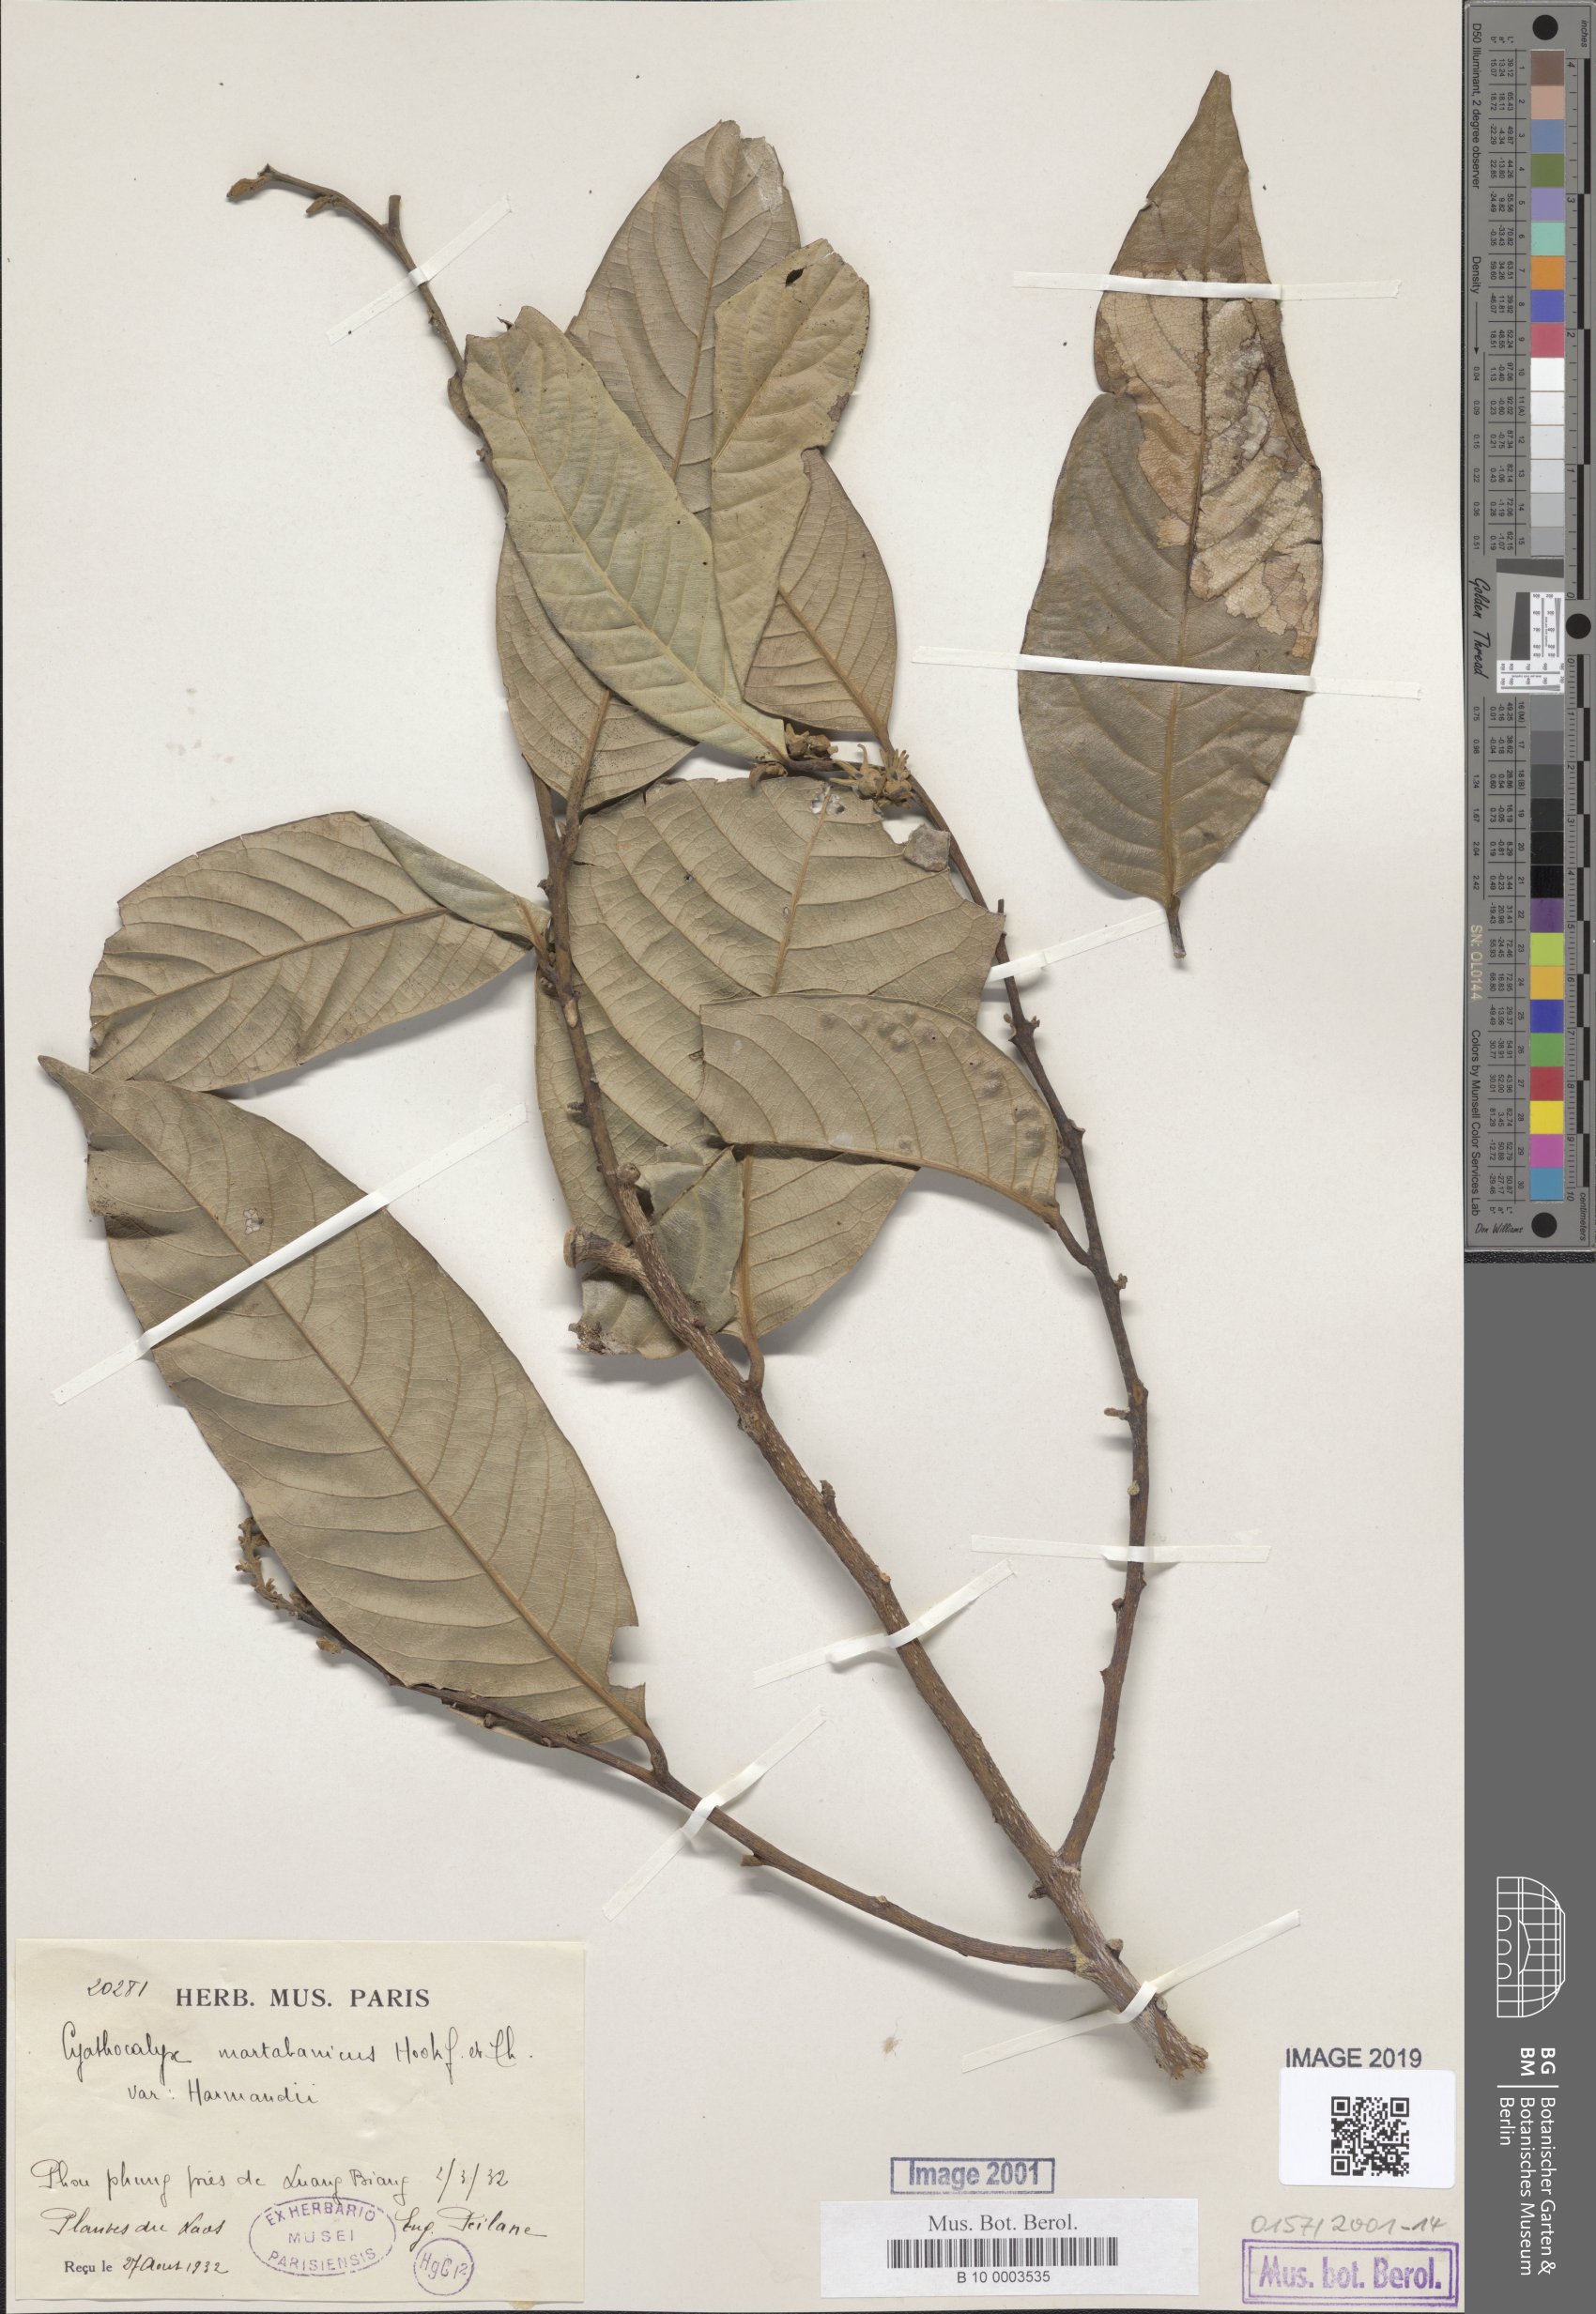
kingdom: Plantae
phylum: Tracheophyta
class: Magnoliopsida
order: Magnoliales
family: Annonaceae
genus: Cyathocalyx
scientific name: Cyathocalyx harmandii
